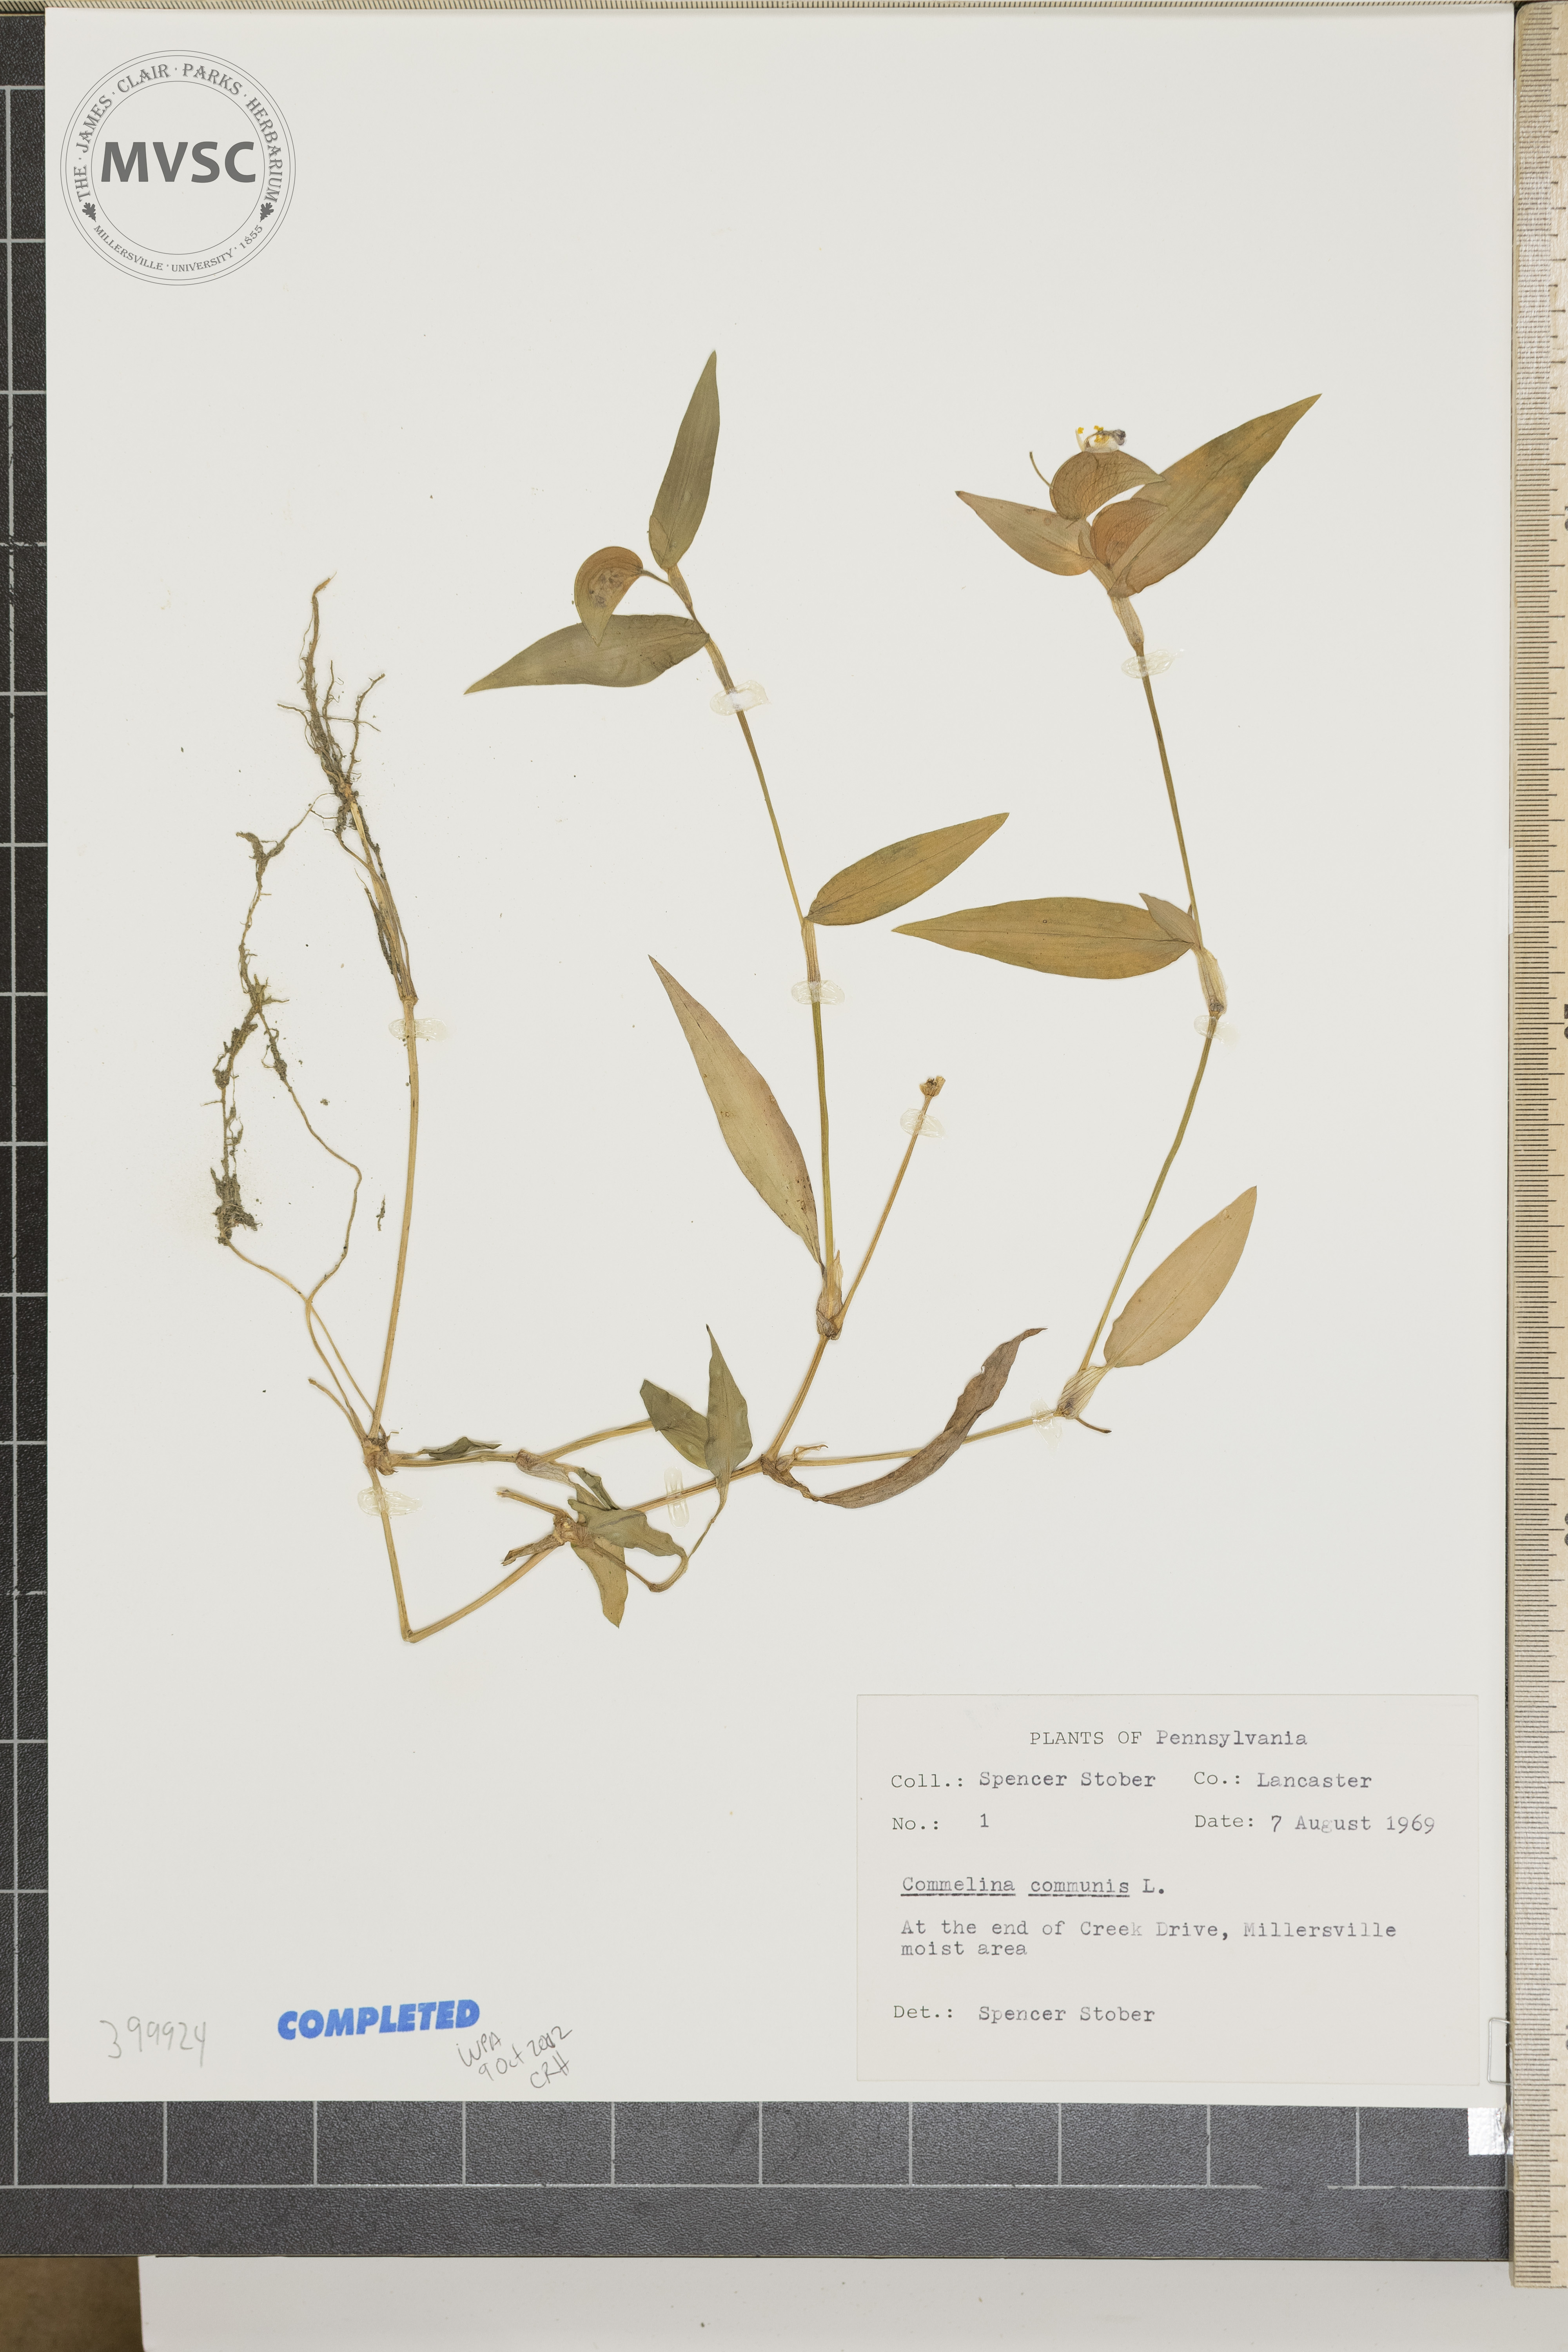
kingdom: Plantae
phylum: Tracheophyta
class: Liliopsida
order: Commelinales
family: Commelinaceae
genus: Commelina
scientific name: Commelina communis
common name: Asiatic dayflower
